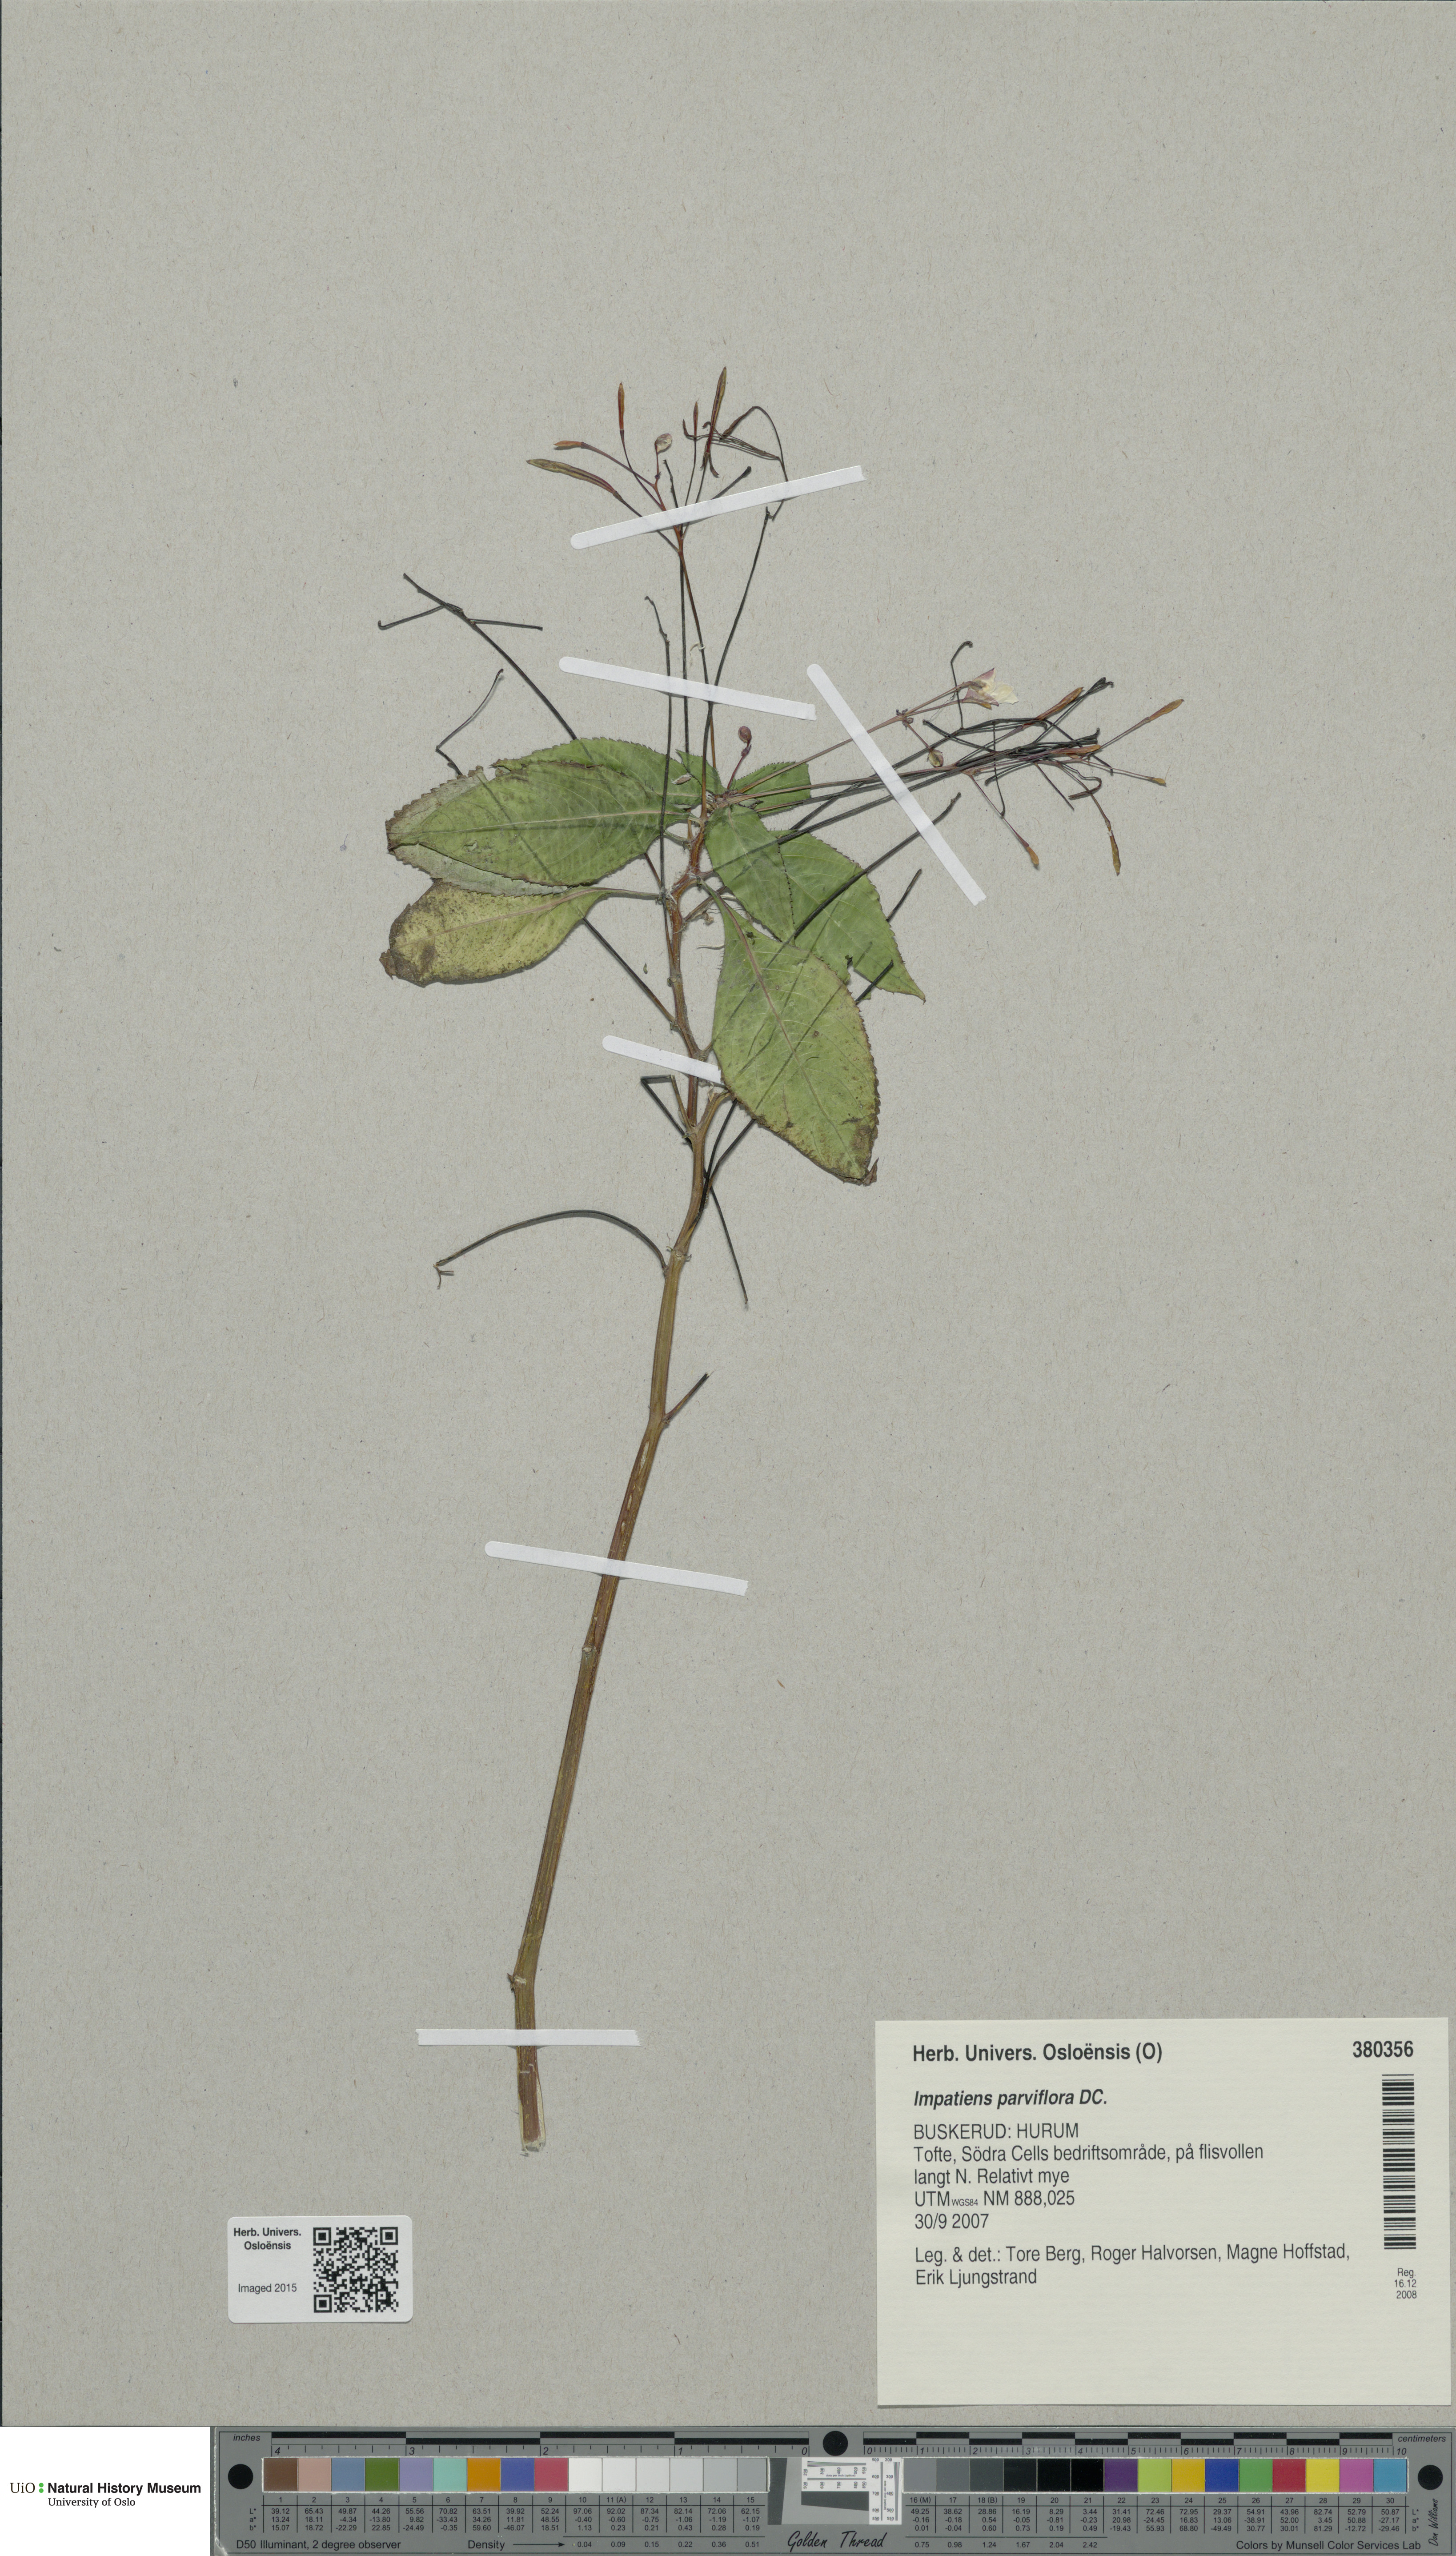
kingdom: Plantae
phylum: Tracheophyta
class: Magnoliopsida
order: Ericales
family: Balsaminaceae
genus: Impatiens
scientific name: Impatiens parviflora
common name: Small balsam
